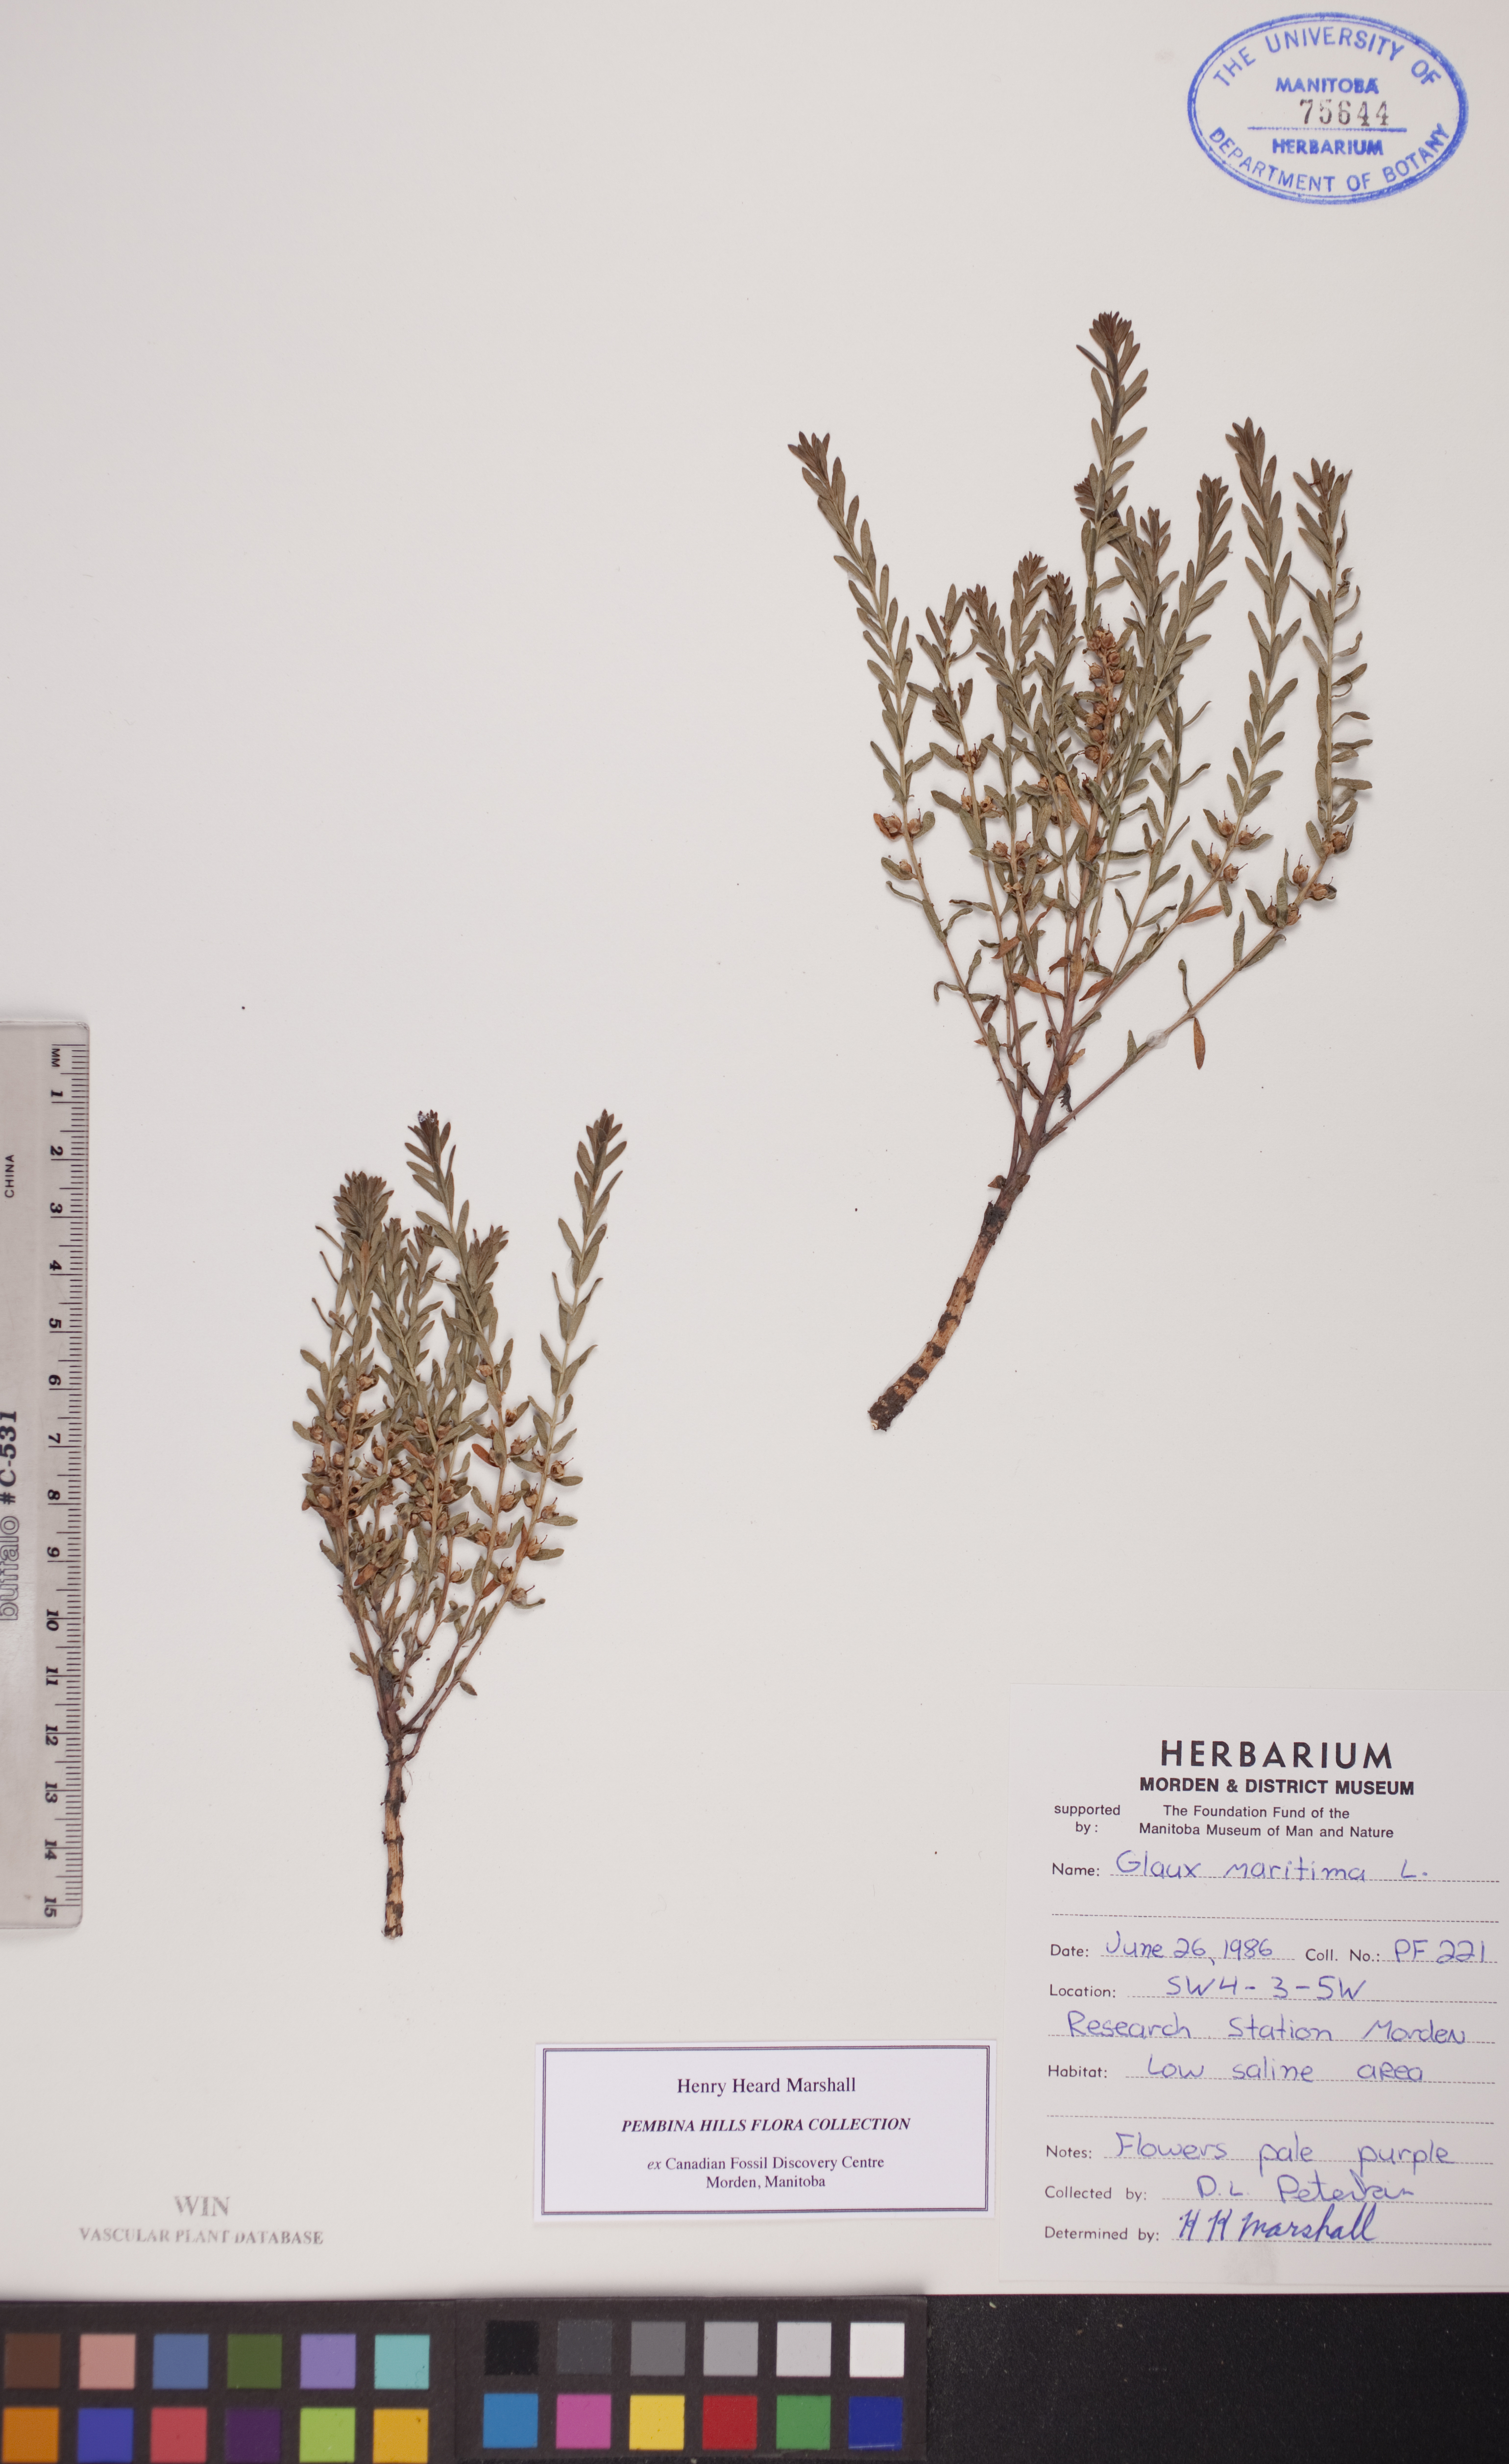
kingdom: Plantae
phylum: Tracheophyta
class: Magnoliopsida
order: Ericales
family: Primulaceae
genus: Lysimachia
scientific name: Lysimachia maritima
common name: Sea milkwort
